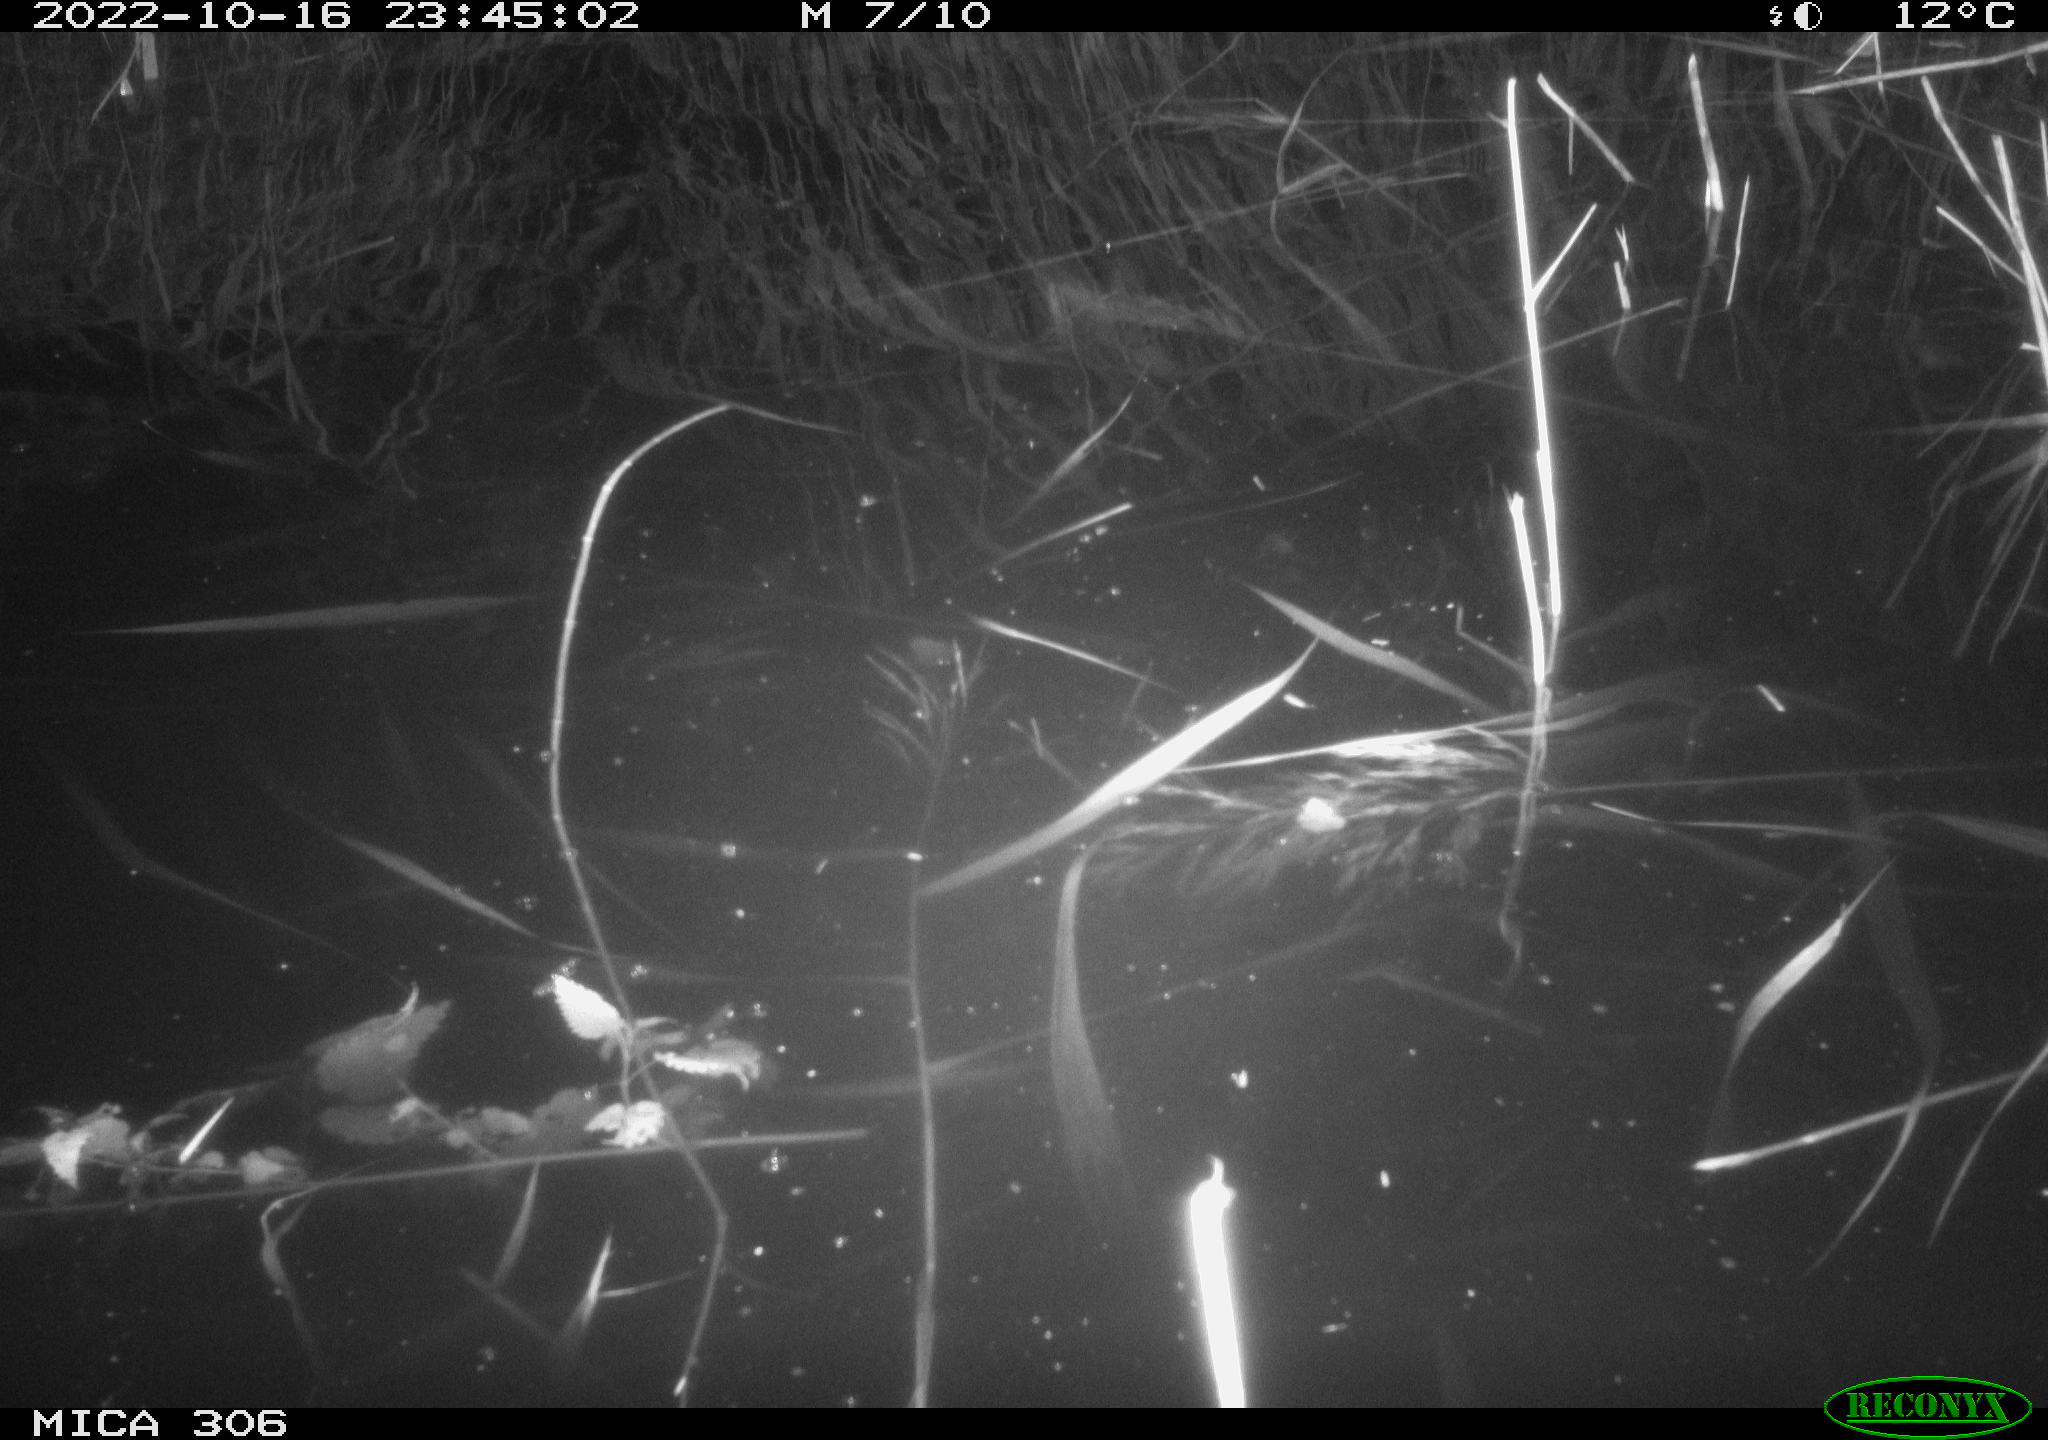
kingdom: Animalia
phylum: Chordata
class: Mammalia
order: Rodentia
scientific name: Rodentia
